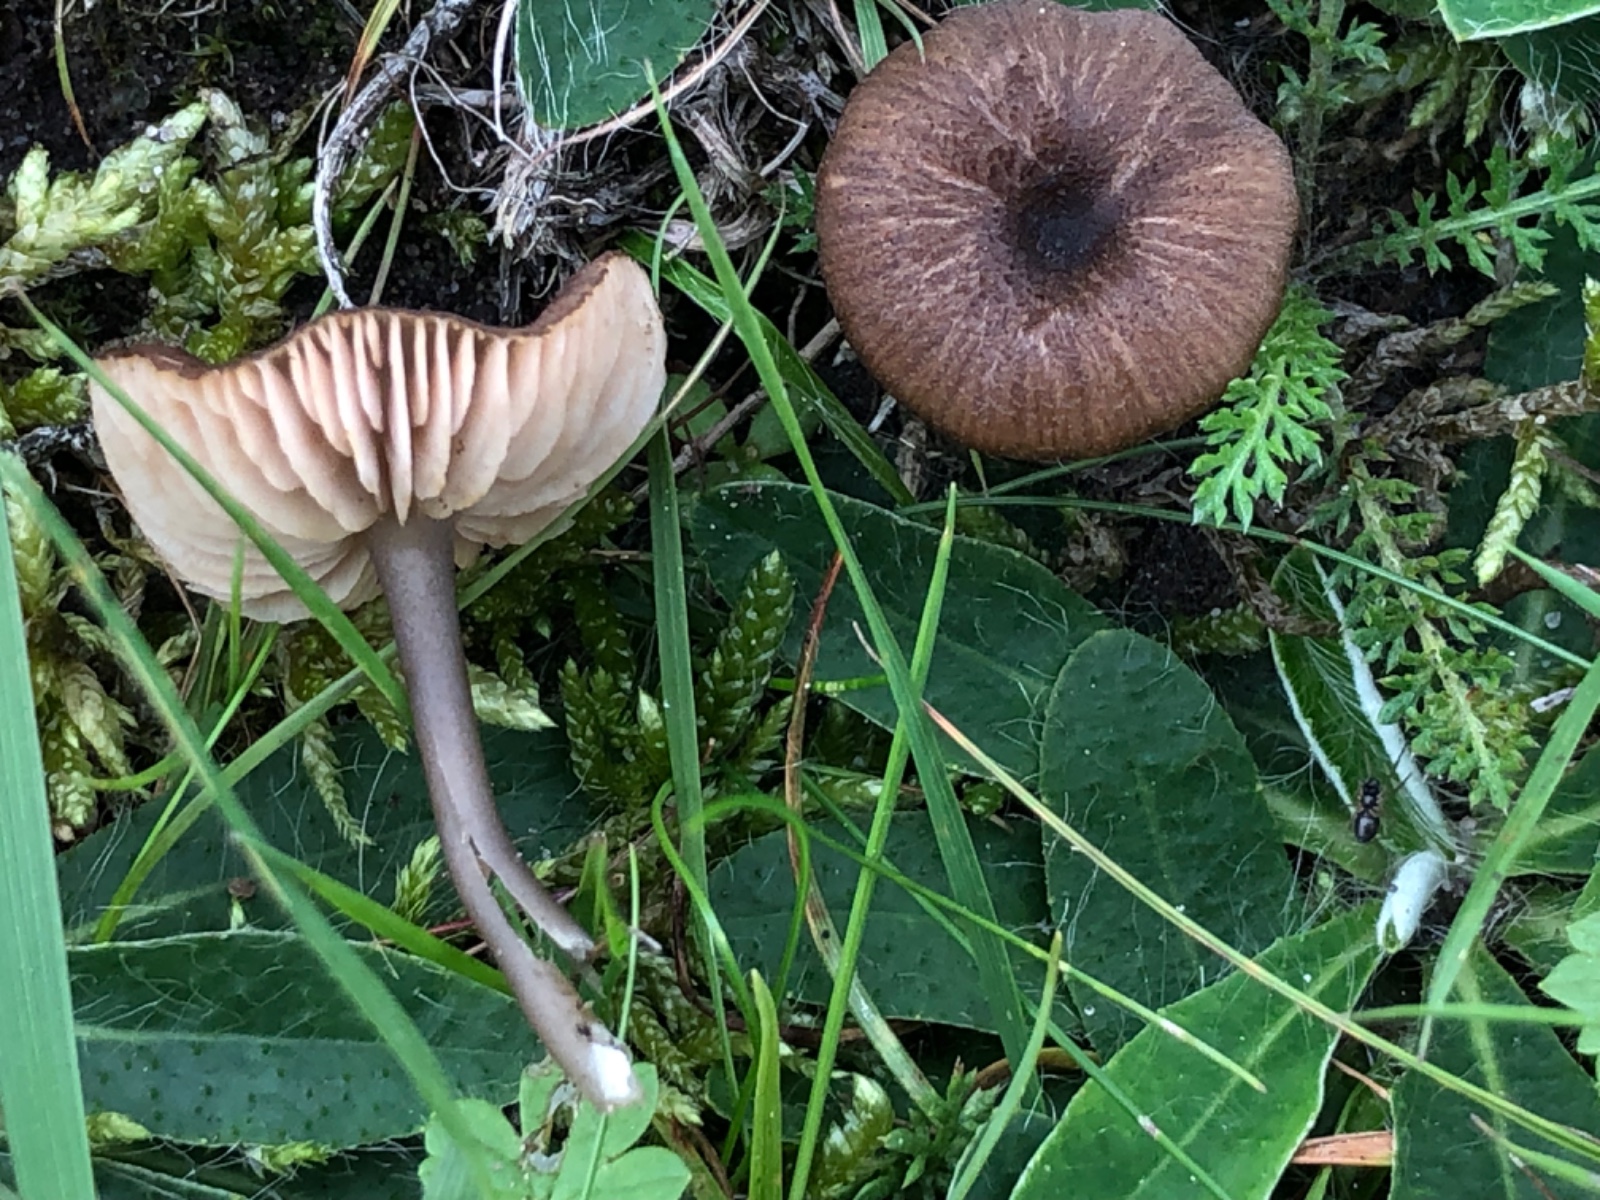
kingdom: Fungi
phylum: Basidiomycota
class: Agaricomycetes
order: Agaricales
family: Entolomataceae
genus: Entoloma
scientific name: Entoloma asprellum
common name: ru rødblad
